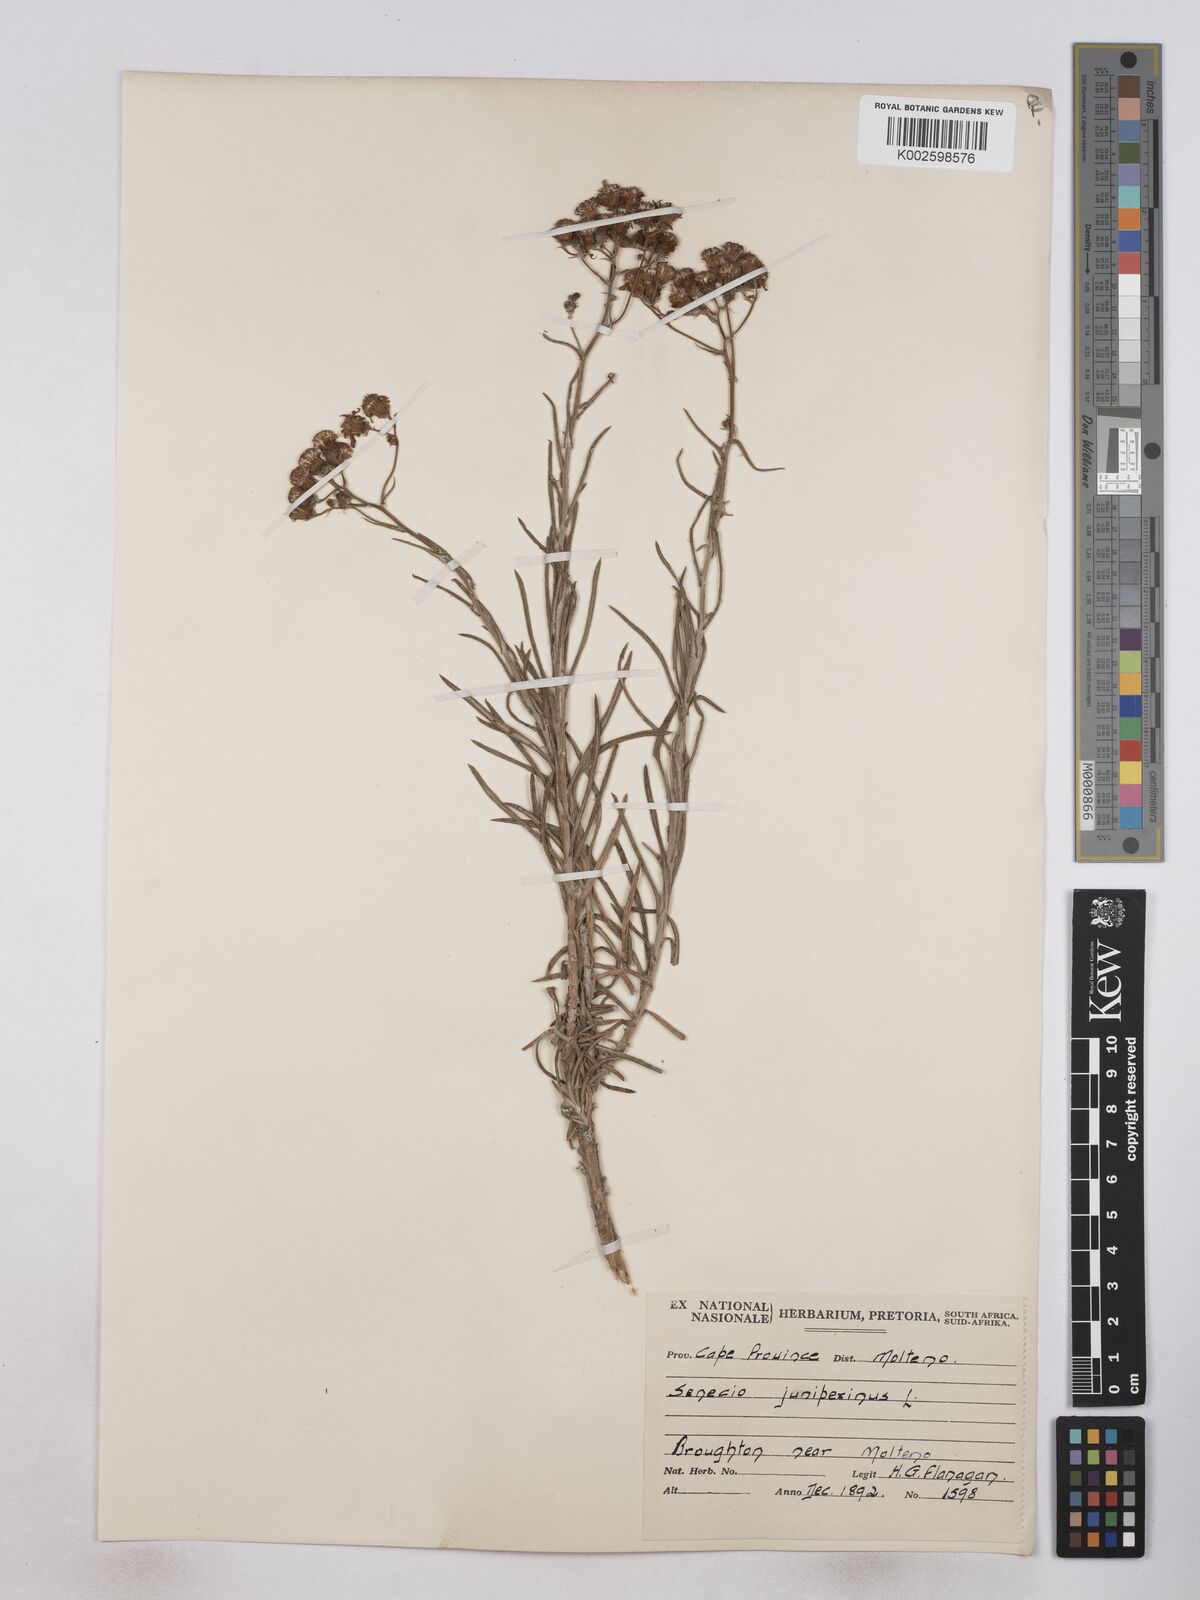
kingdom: Plantae
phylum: Tracheophyta
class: Magnoliopsida
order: Asterales
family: Asteraceae
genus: Senecio
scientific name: Senecio juniperinus
